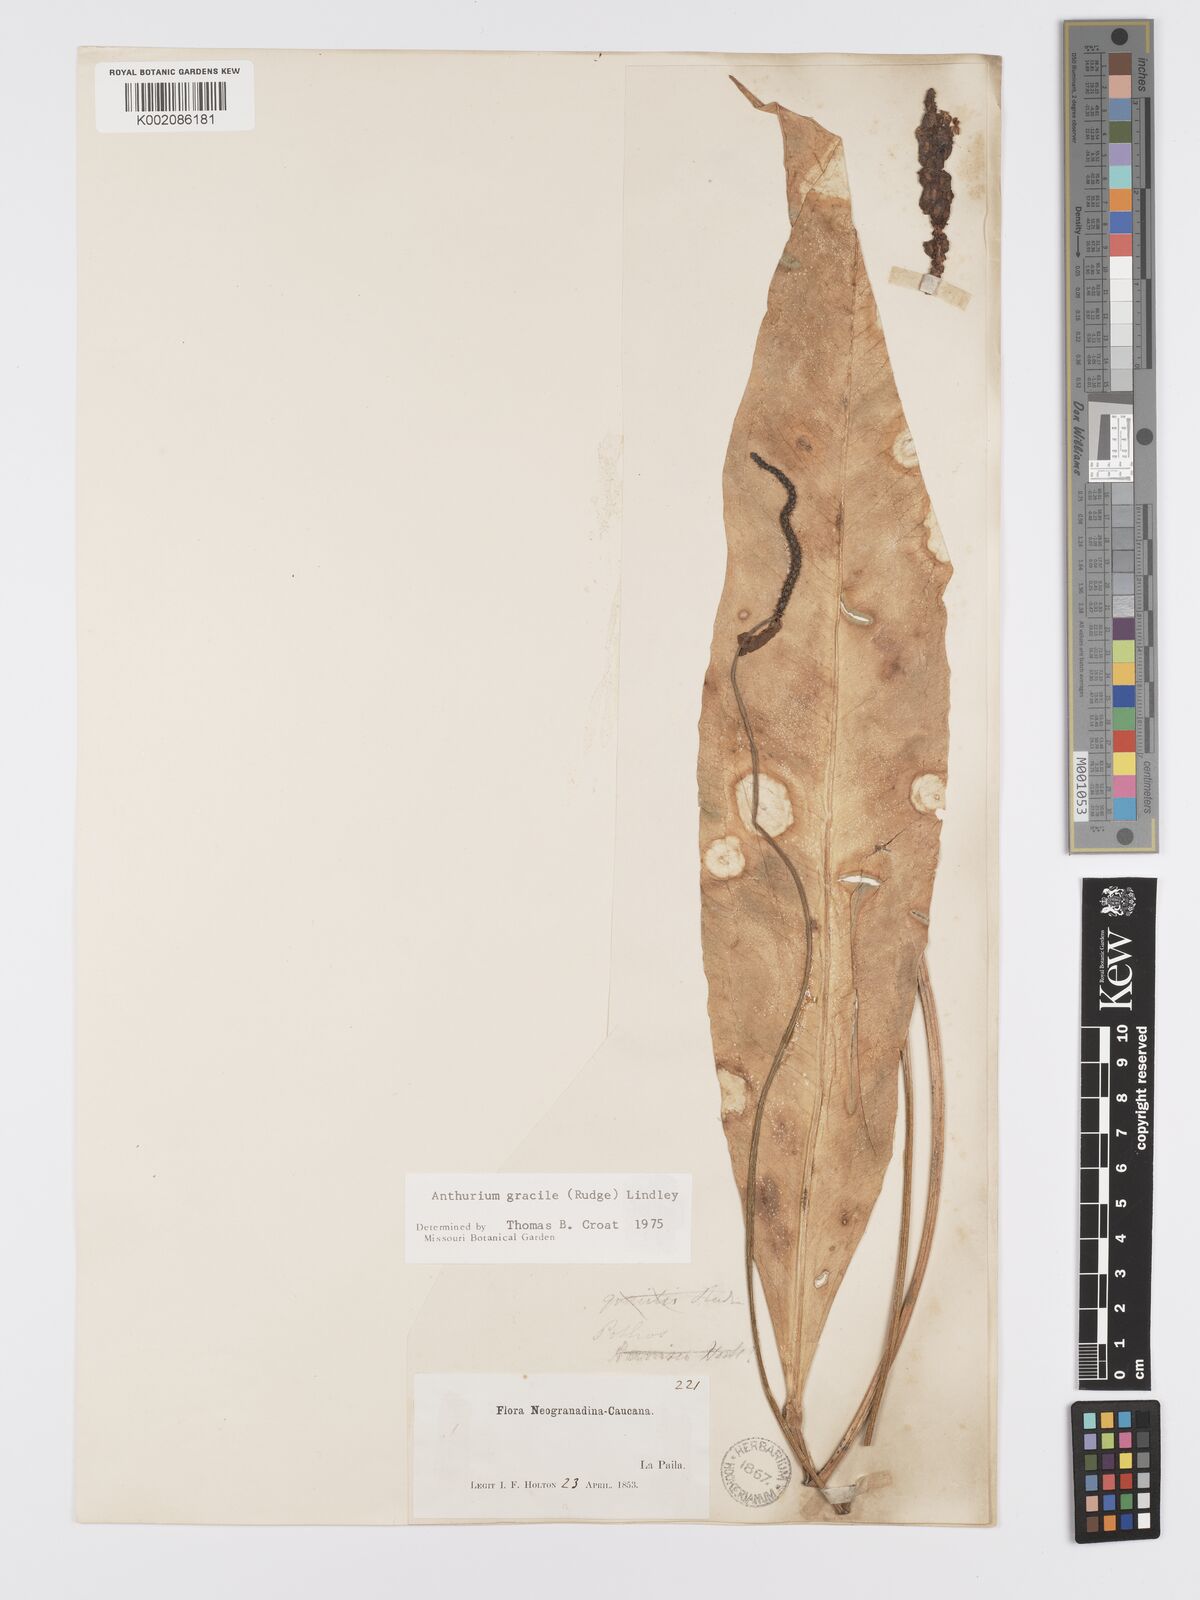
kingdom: Plantae
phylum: Tracheophyta
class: Liliopsida
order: Alismatales
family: Araceae
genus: Anthurium
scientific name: Anthurium gracile
